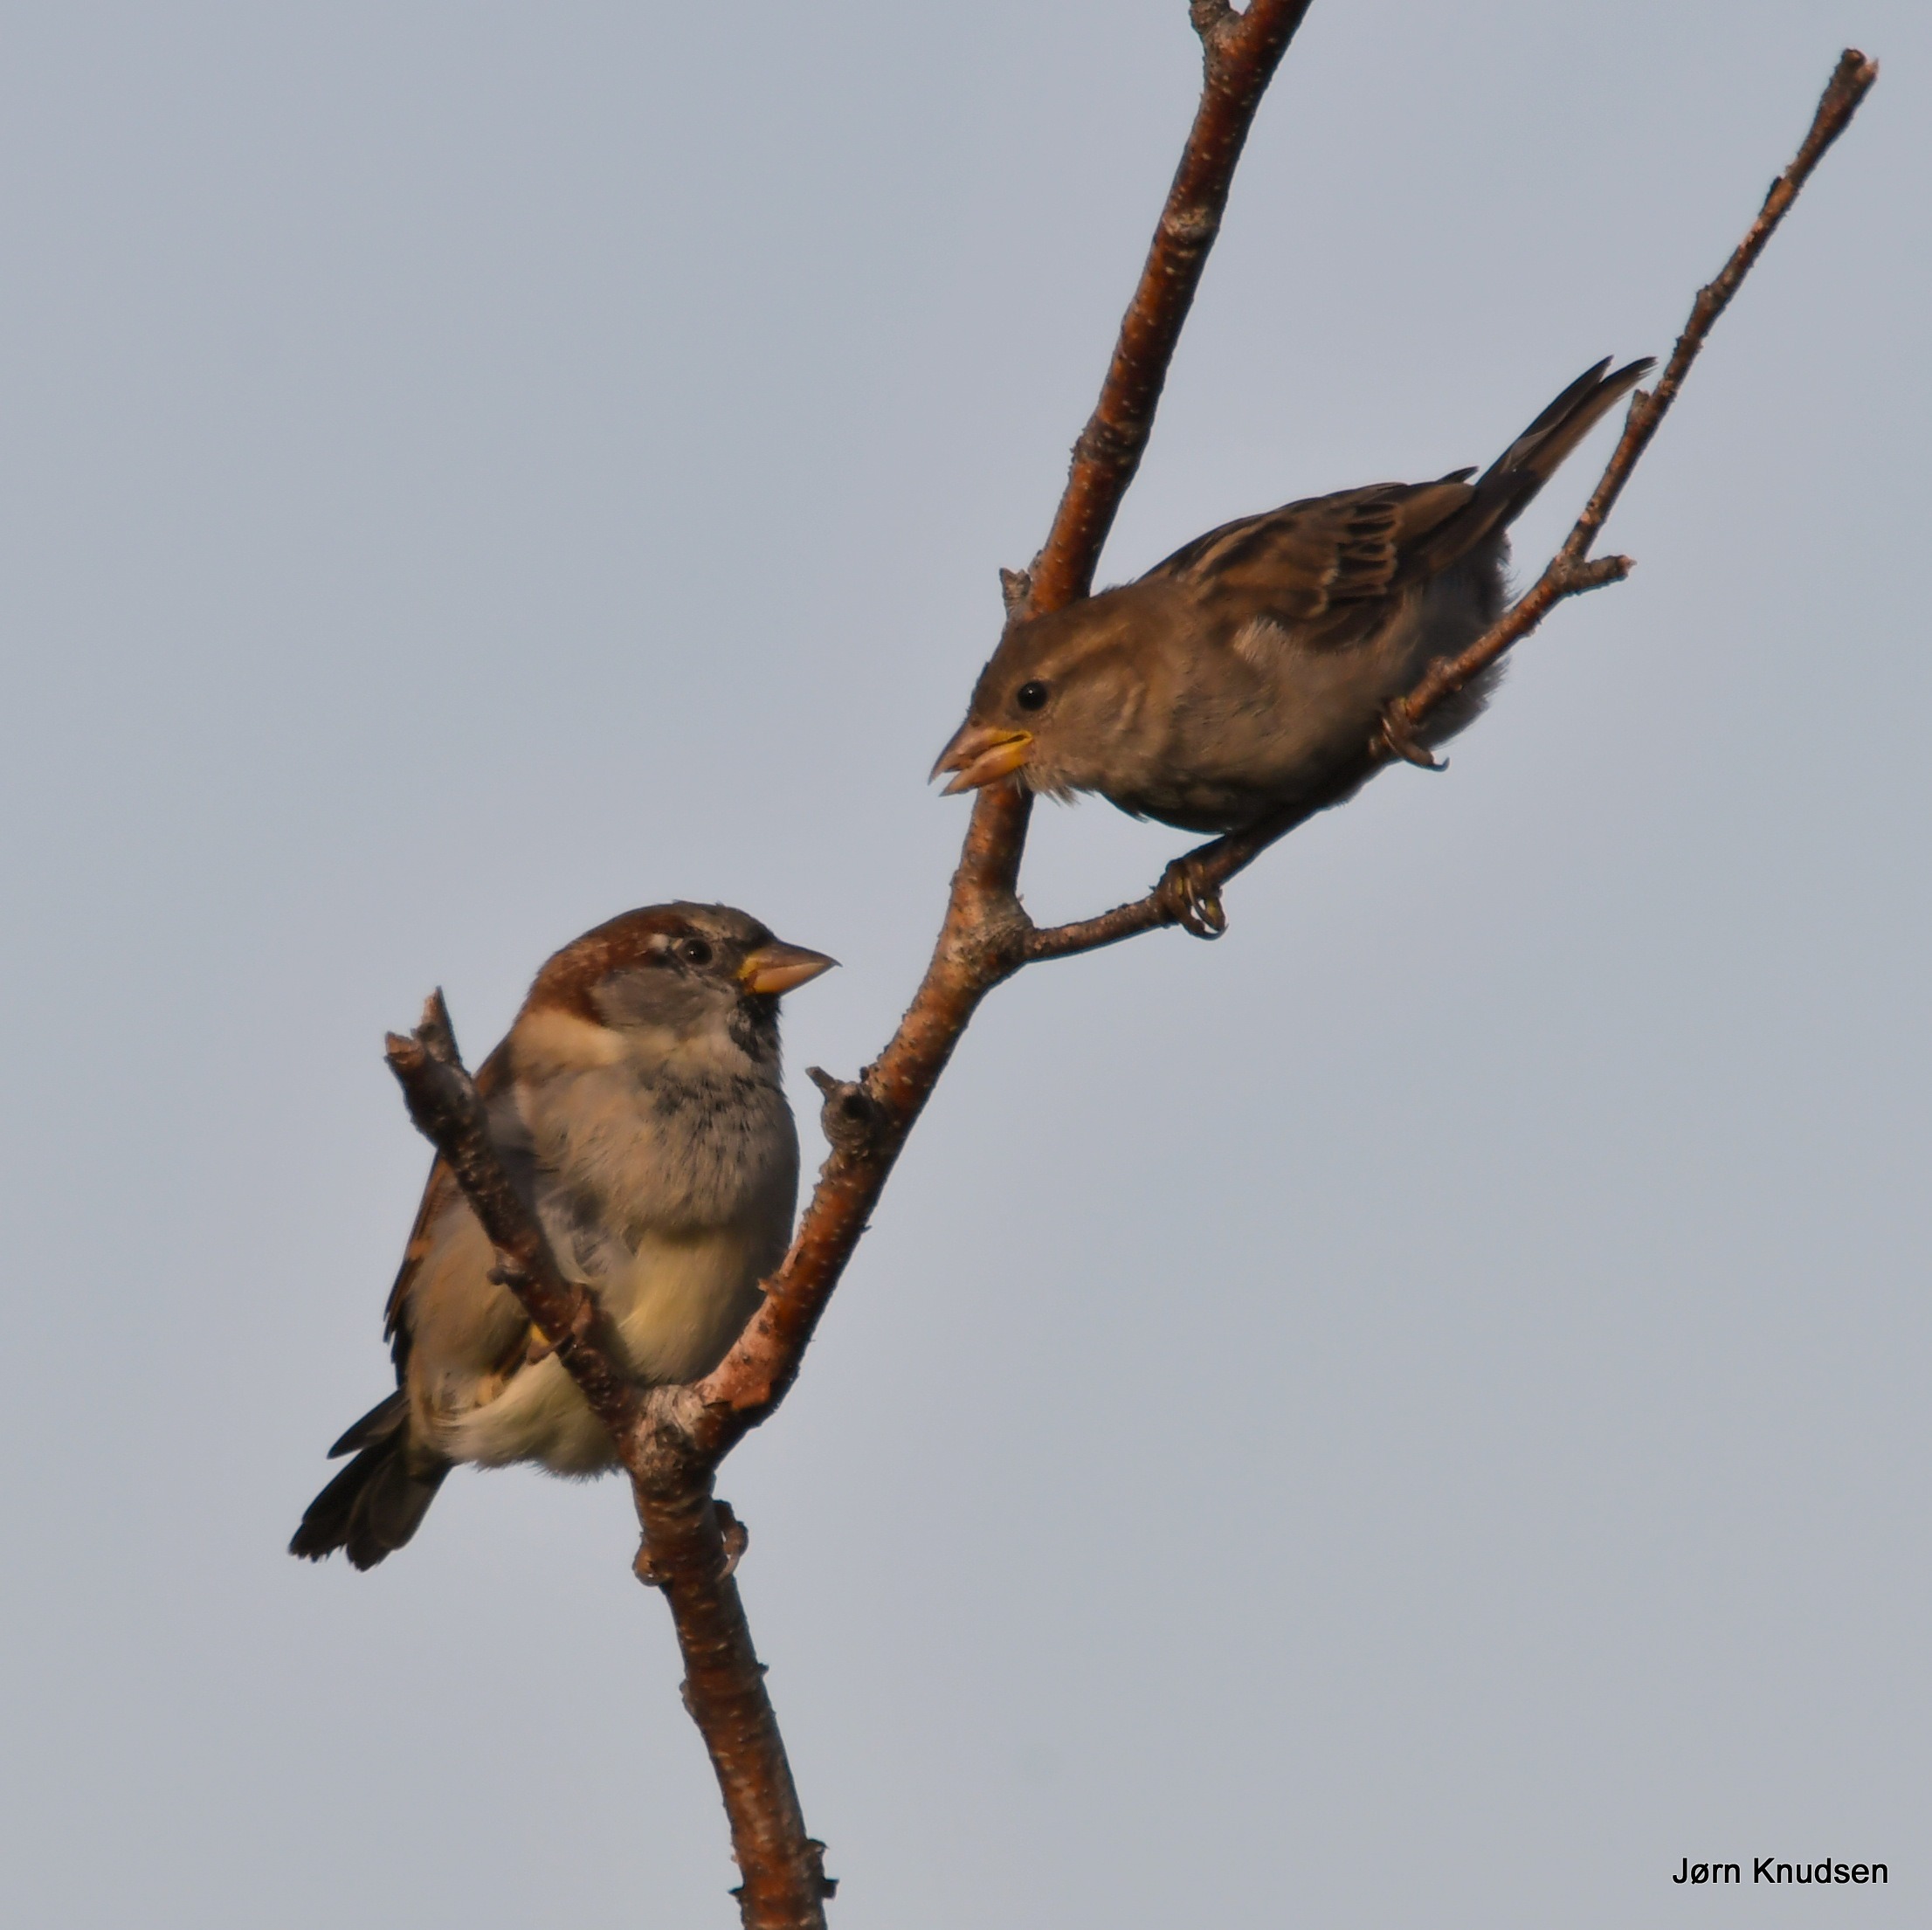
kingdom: Animalia
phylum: Chordata
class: Aves
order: Passeriformes
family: Passeridae
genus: Passer
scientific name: Passer domesticus
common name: Gråspurv
